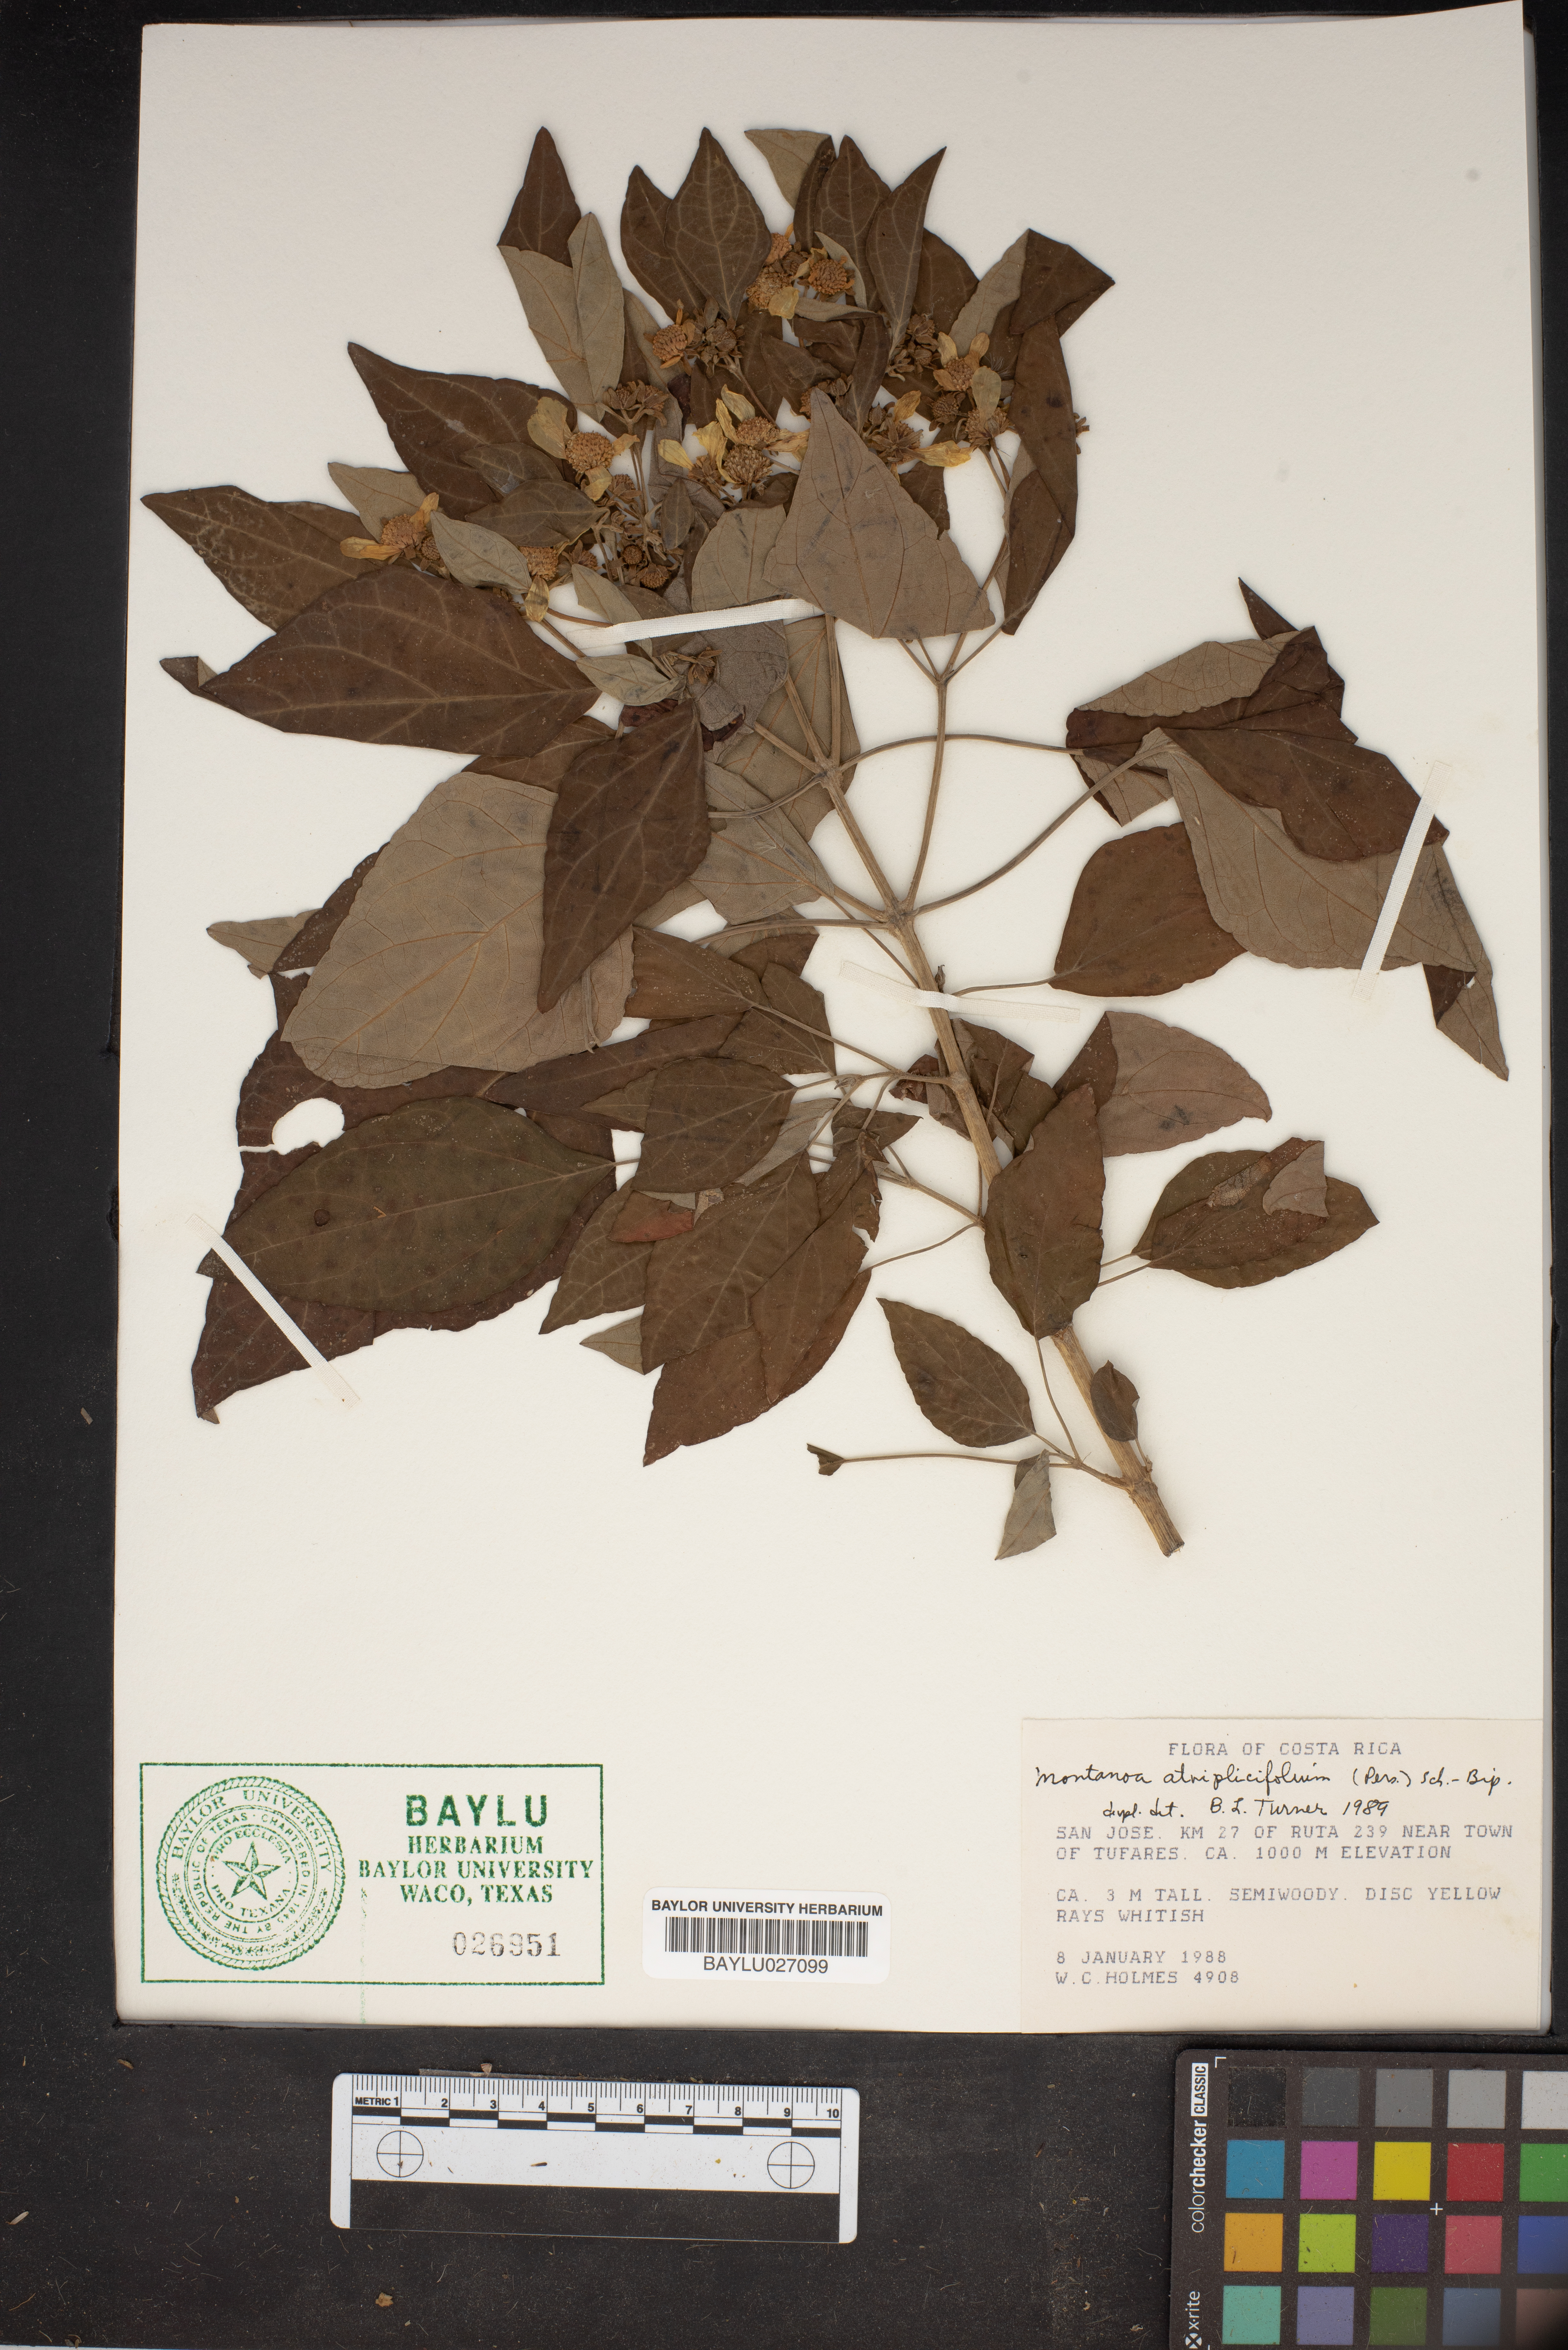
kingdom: Plantae
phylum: Tracheophyta
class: Magnoliopsida
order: Asterales
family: Asteraceae
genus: Montanoa
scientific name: Montanoa atriplicifolia
